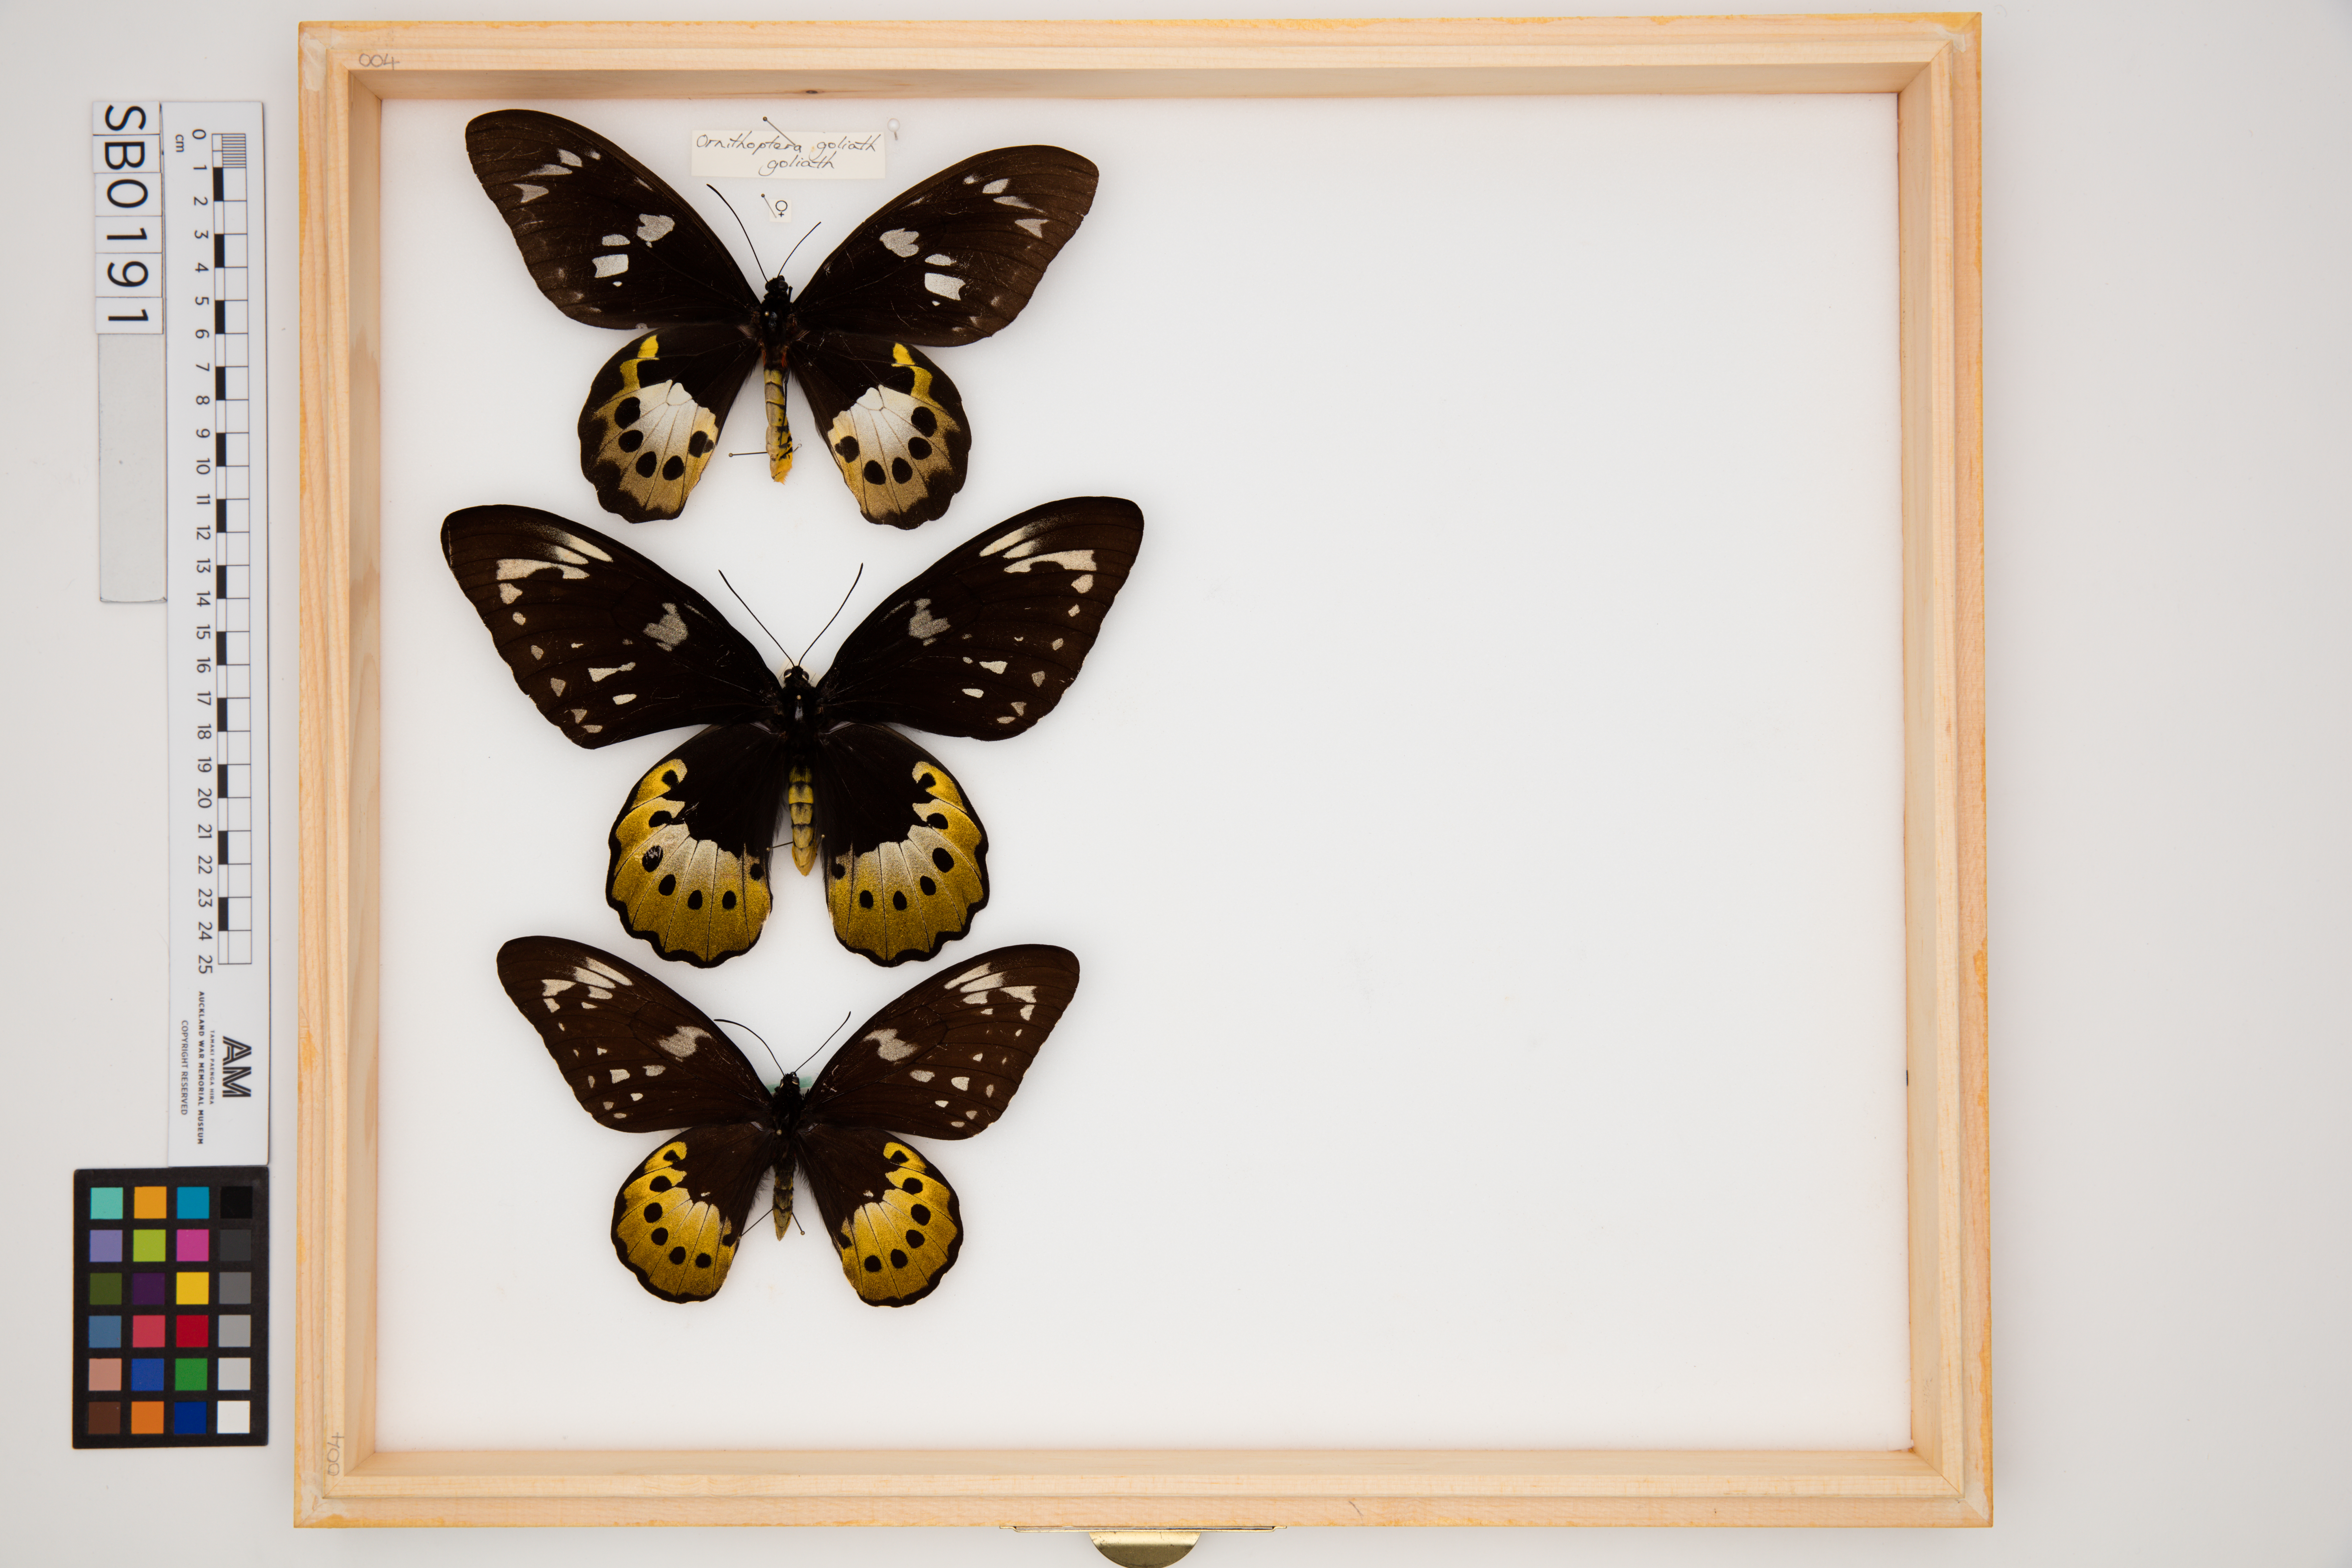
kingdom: Animalia
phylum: Arthropoda
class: Insecta
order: Lepidoptera
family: Papilionidae
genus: Ornithoptera
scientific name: Ornithoptera goliath
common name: Goliath birdwing
